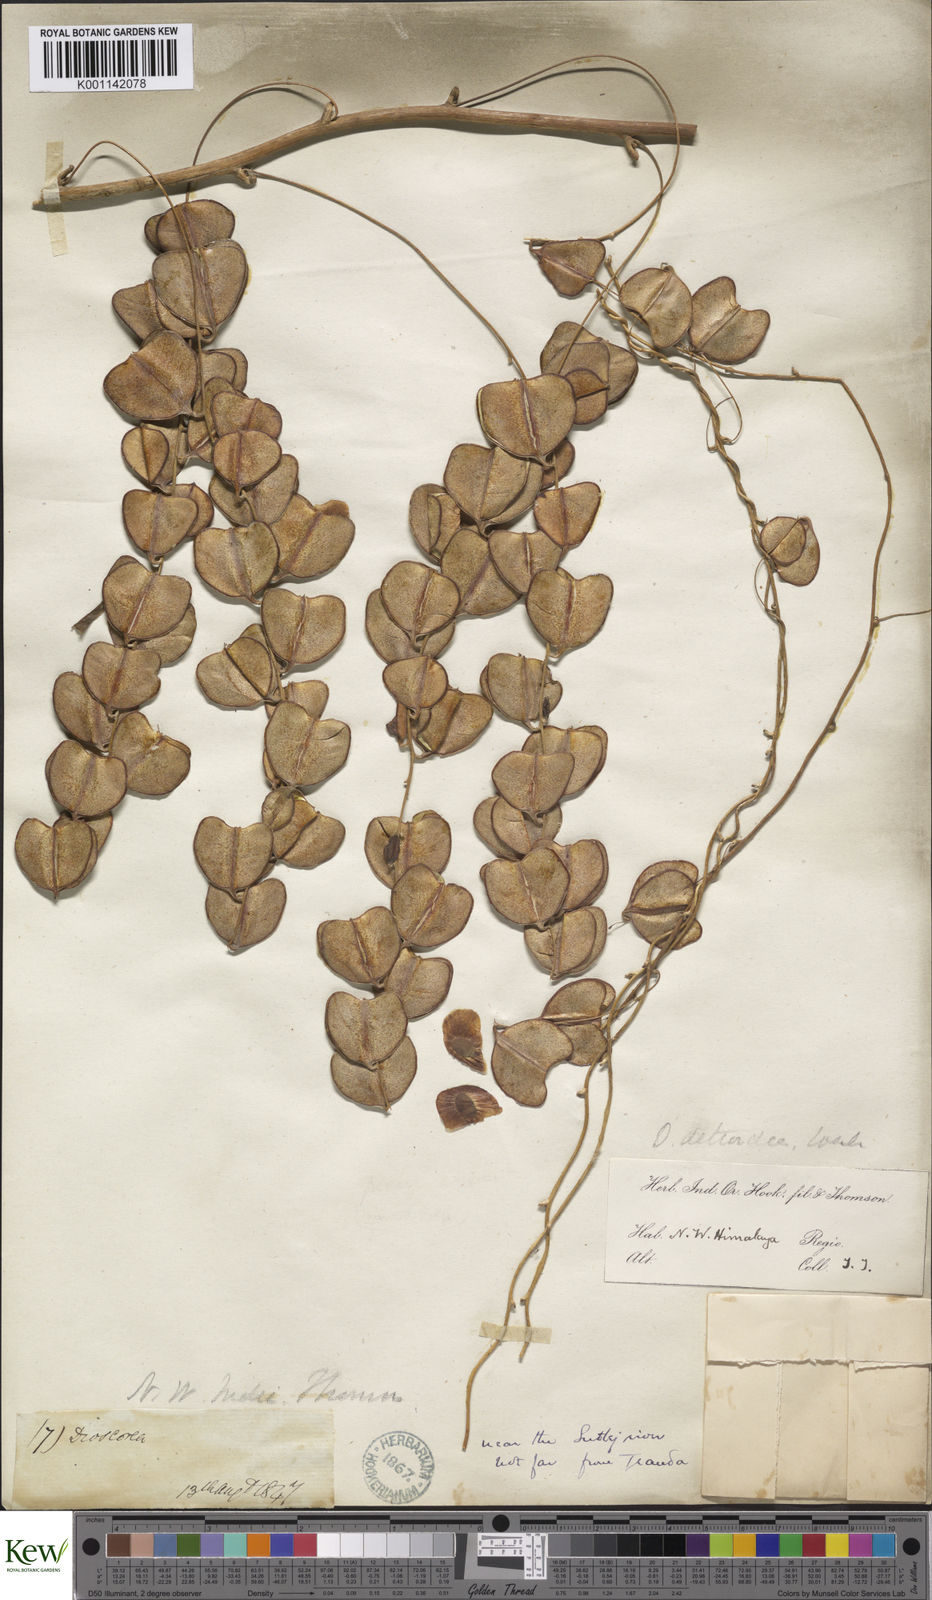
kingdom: Plantae
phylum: Tracheophyta
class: Liliopsida
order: Dioscoreales
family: Dioscoreaceae
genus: Dioscorea
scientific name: Dioscorea deltoidea
